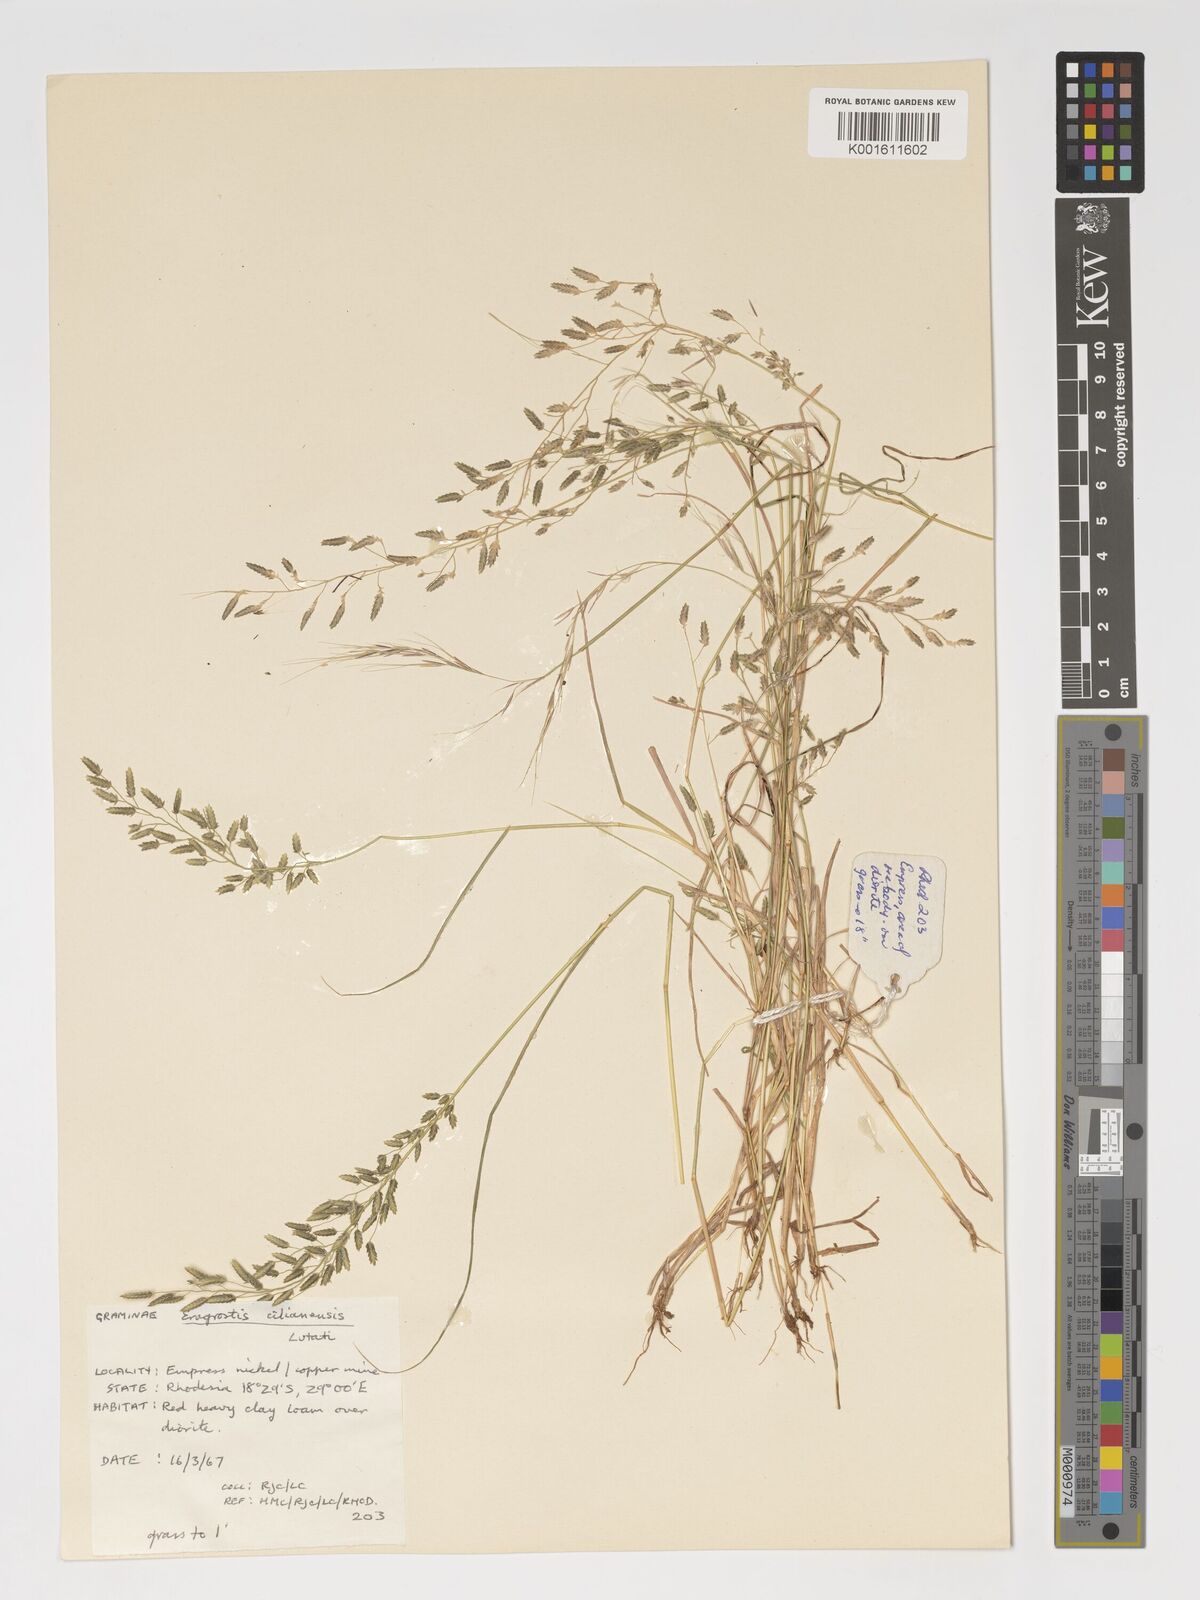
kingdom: Plantae
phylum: Tracheophyta
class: Liliopsida
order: Poales
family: Poaceae
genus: Eragrostis
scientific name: Eragrostis cilianensis
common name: Stinkgrass
